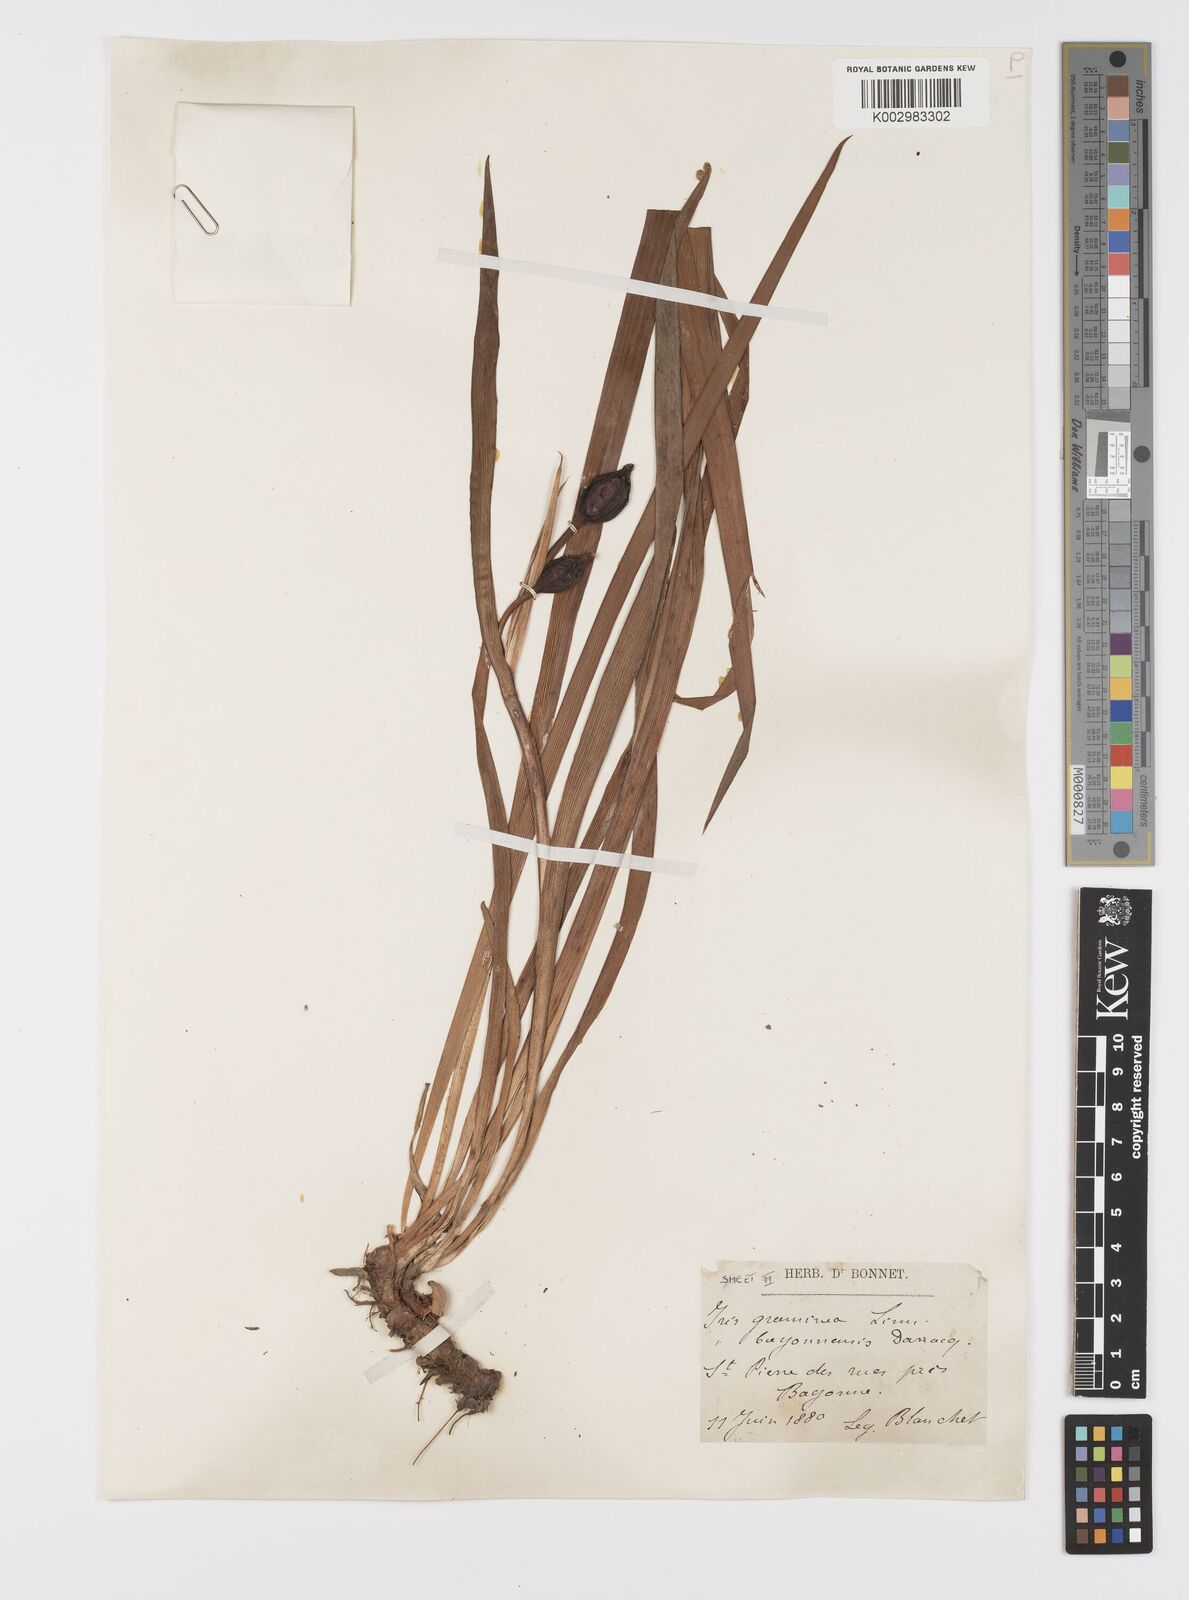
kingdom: Plantae
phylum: Tracheophyta
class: Liliopsida
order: Asparagales
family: Iridaceae
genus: Iris
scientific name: Iris graminea
